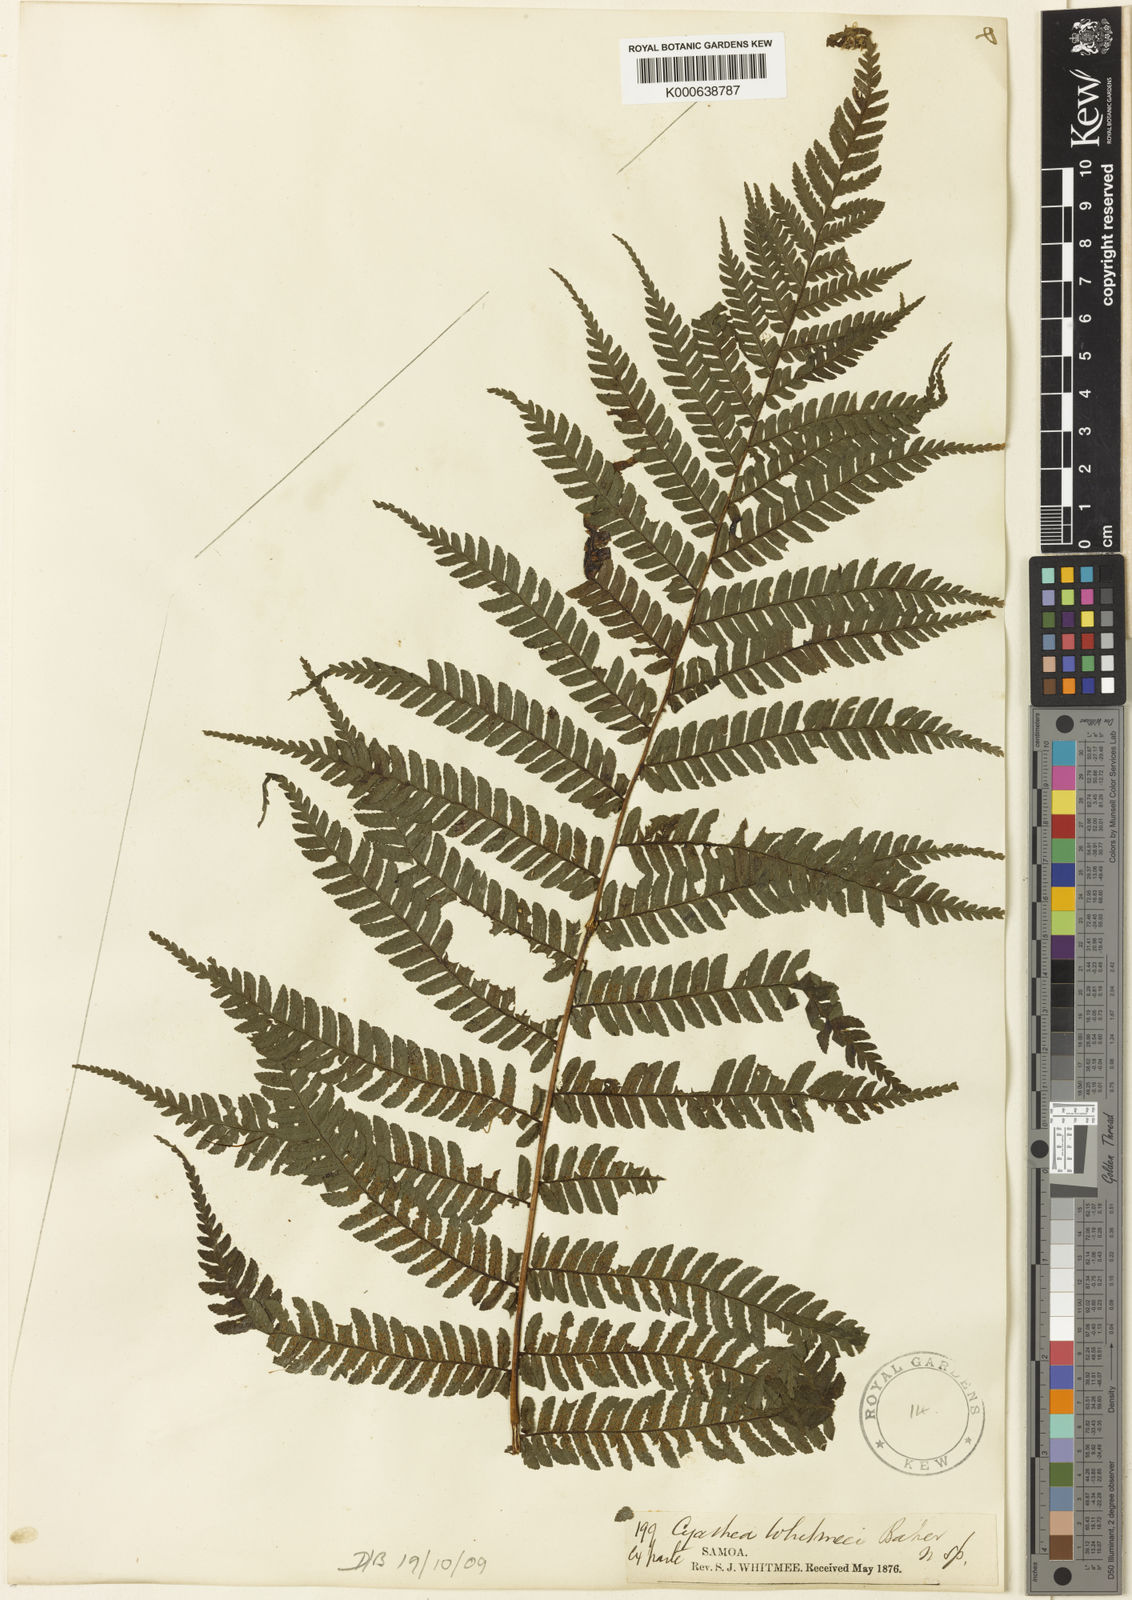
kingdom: Plantae
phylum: Tracheophyta
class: Polypodiopsida
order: Cyatheales
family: Cyatheaceae
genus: Cyathea
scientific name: Cyathea whitmeei
